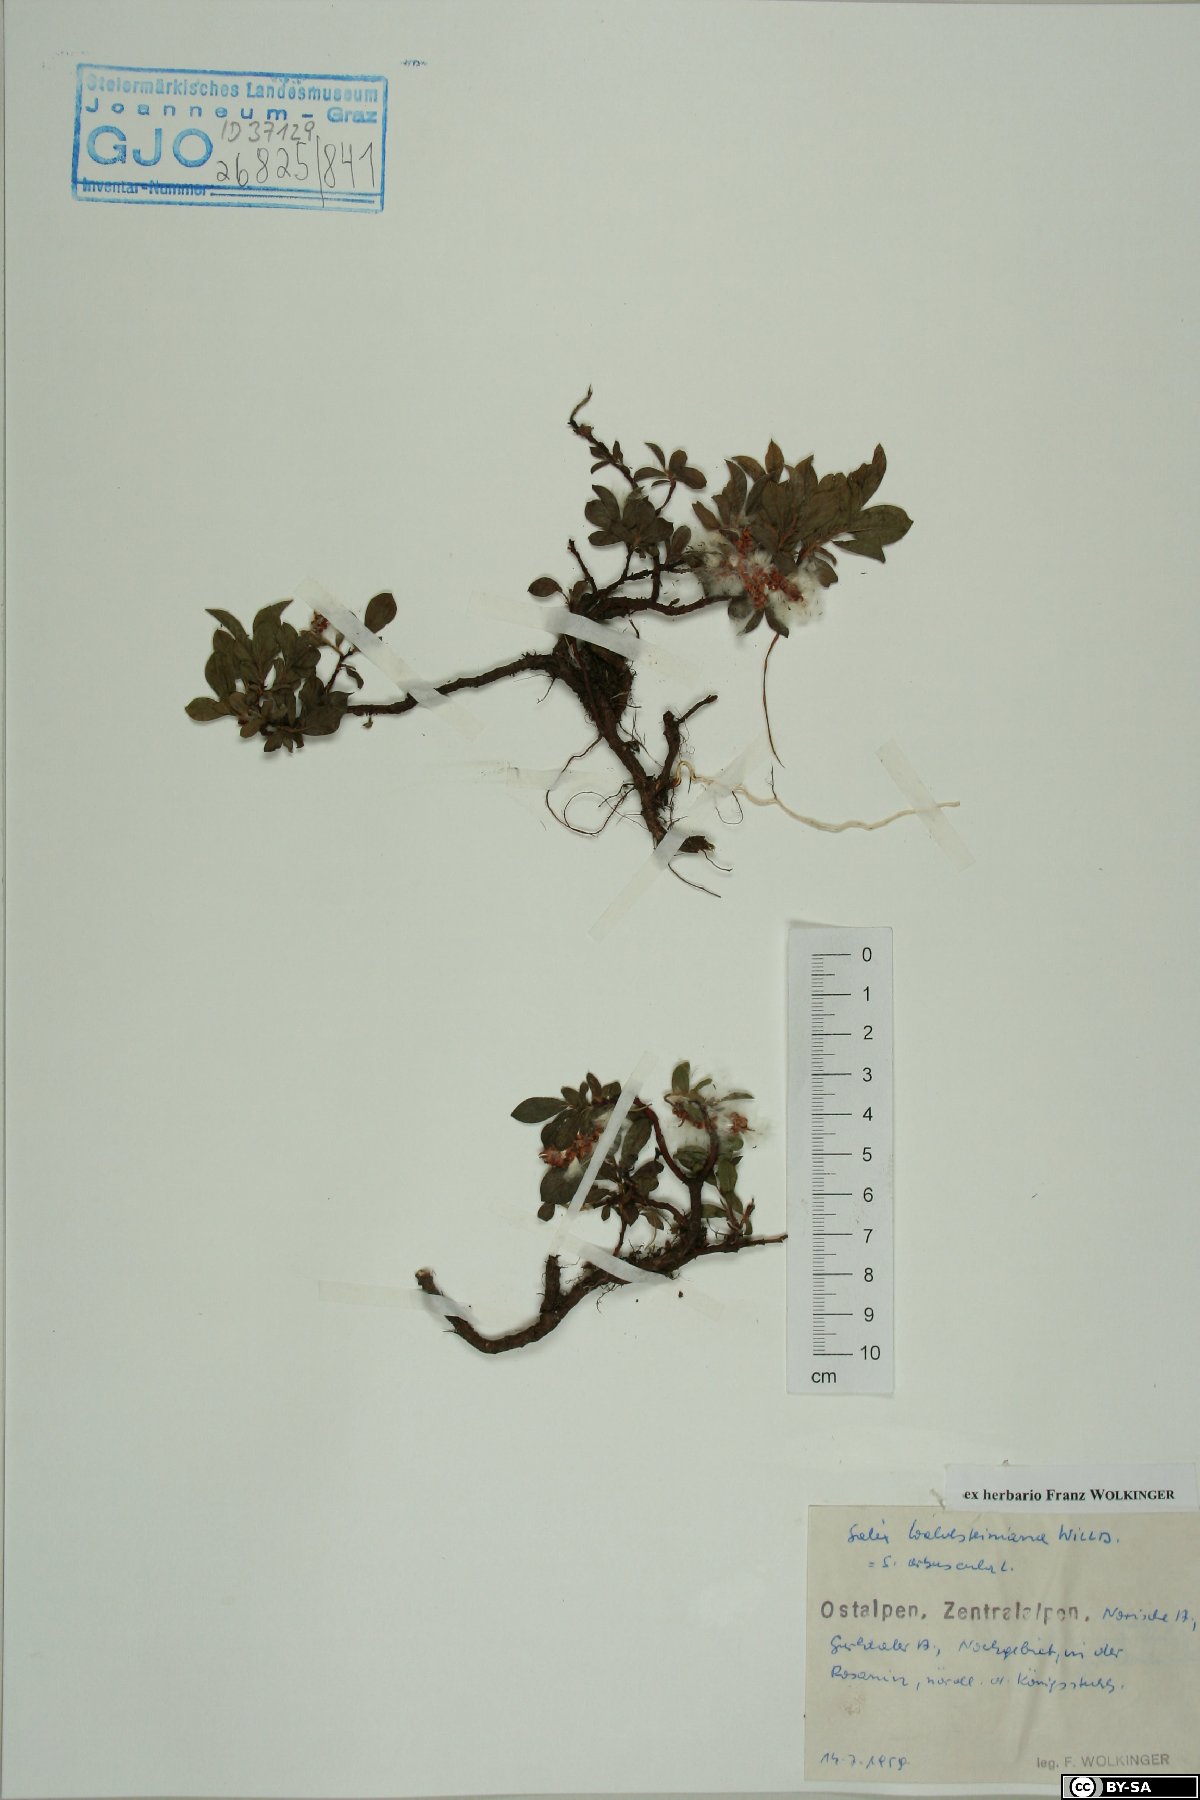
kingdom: Plantae
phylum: Tracheophyta
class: Magnoliopsida
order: Malpighiales
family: Salicaceae
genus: Salix
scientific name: Salix waldsteiniana
